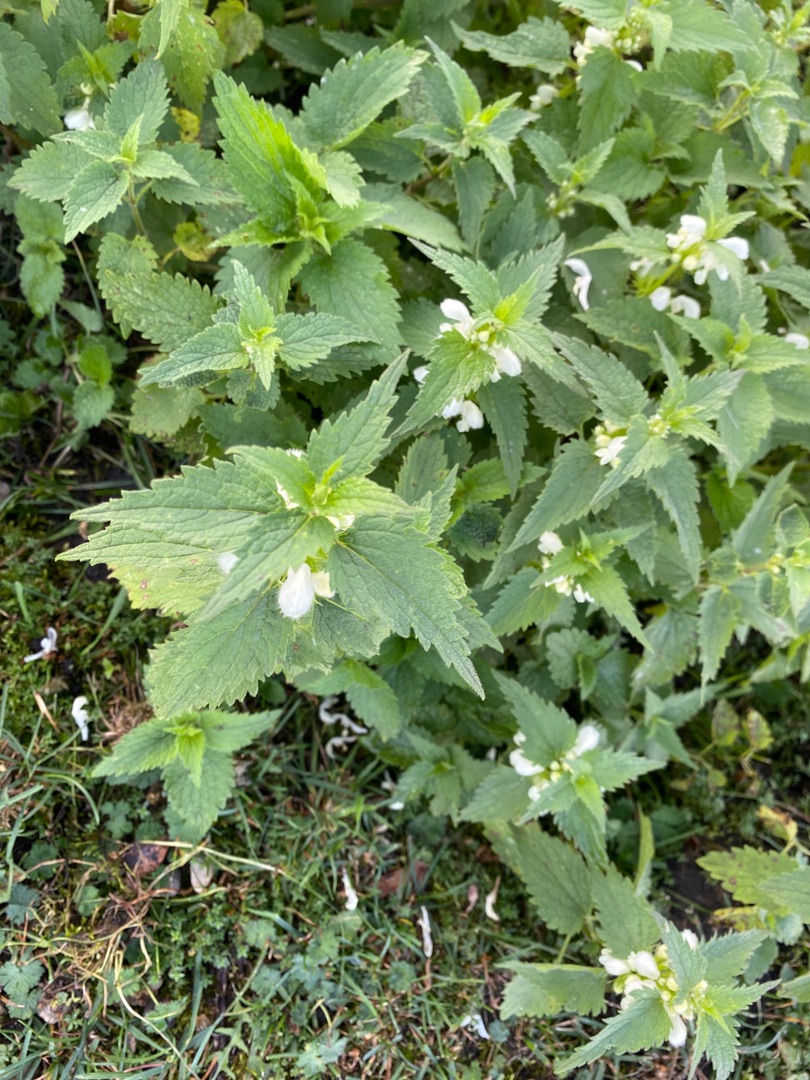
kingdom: Plantae
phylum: Tracheophyta
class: Magnoliopsida
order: Lamiales
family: Lamiaceae
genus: Lamium
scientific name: Lamium album
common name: Døvnælde
